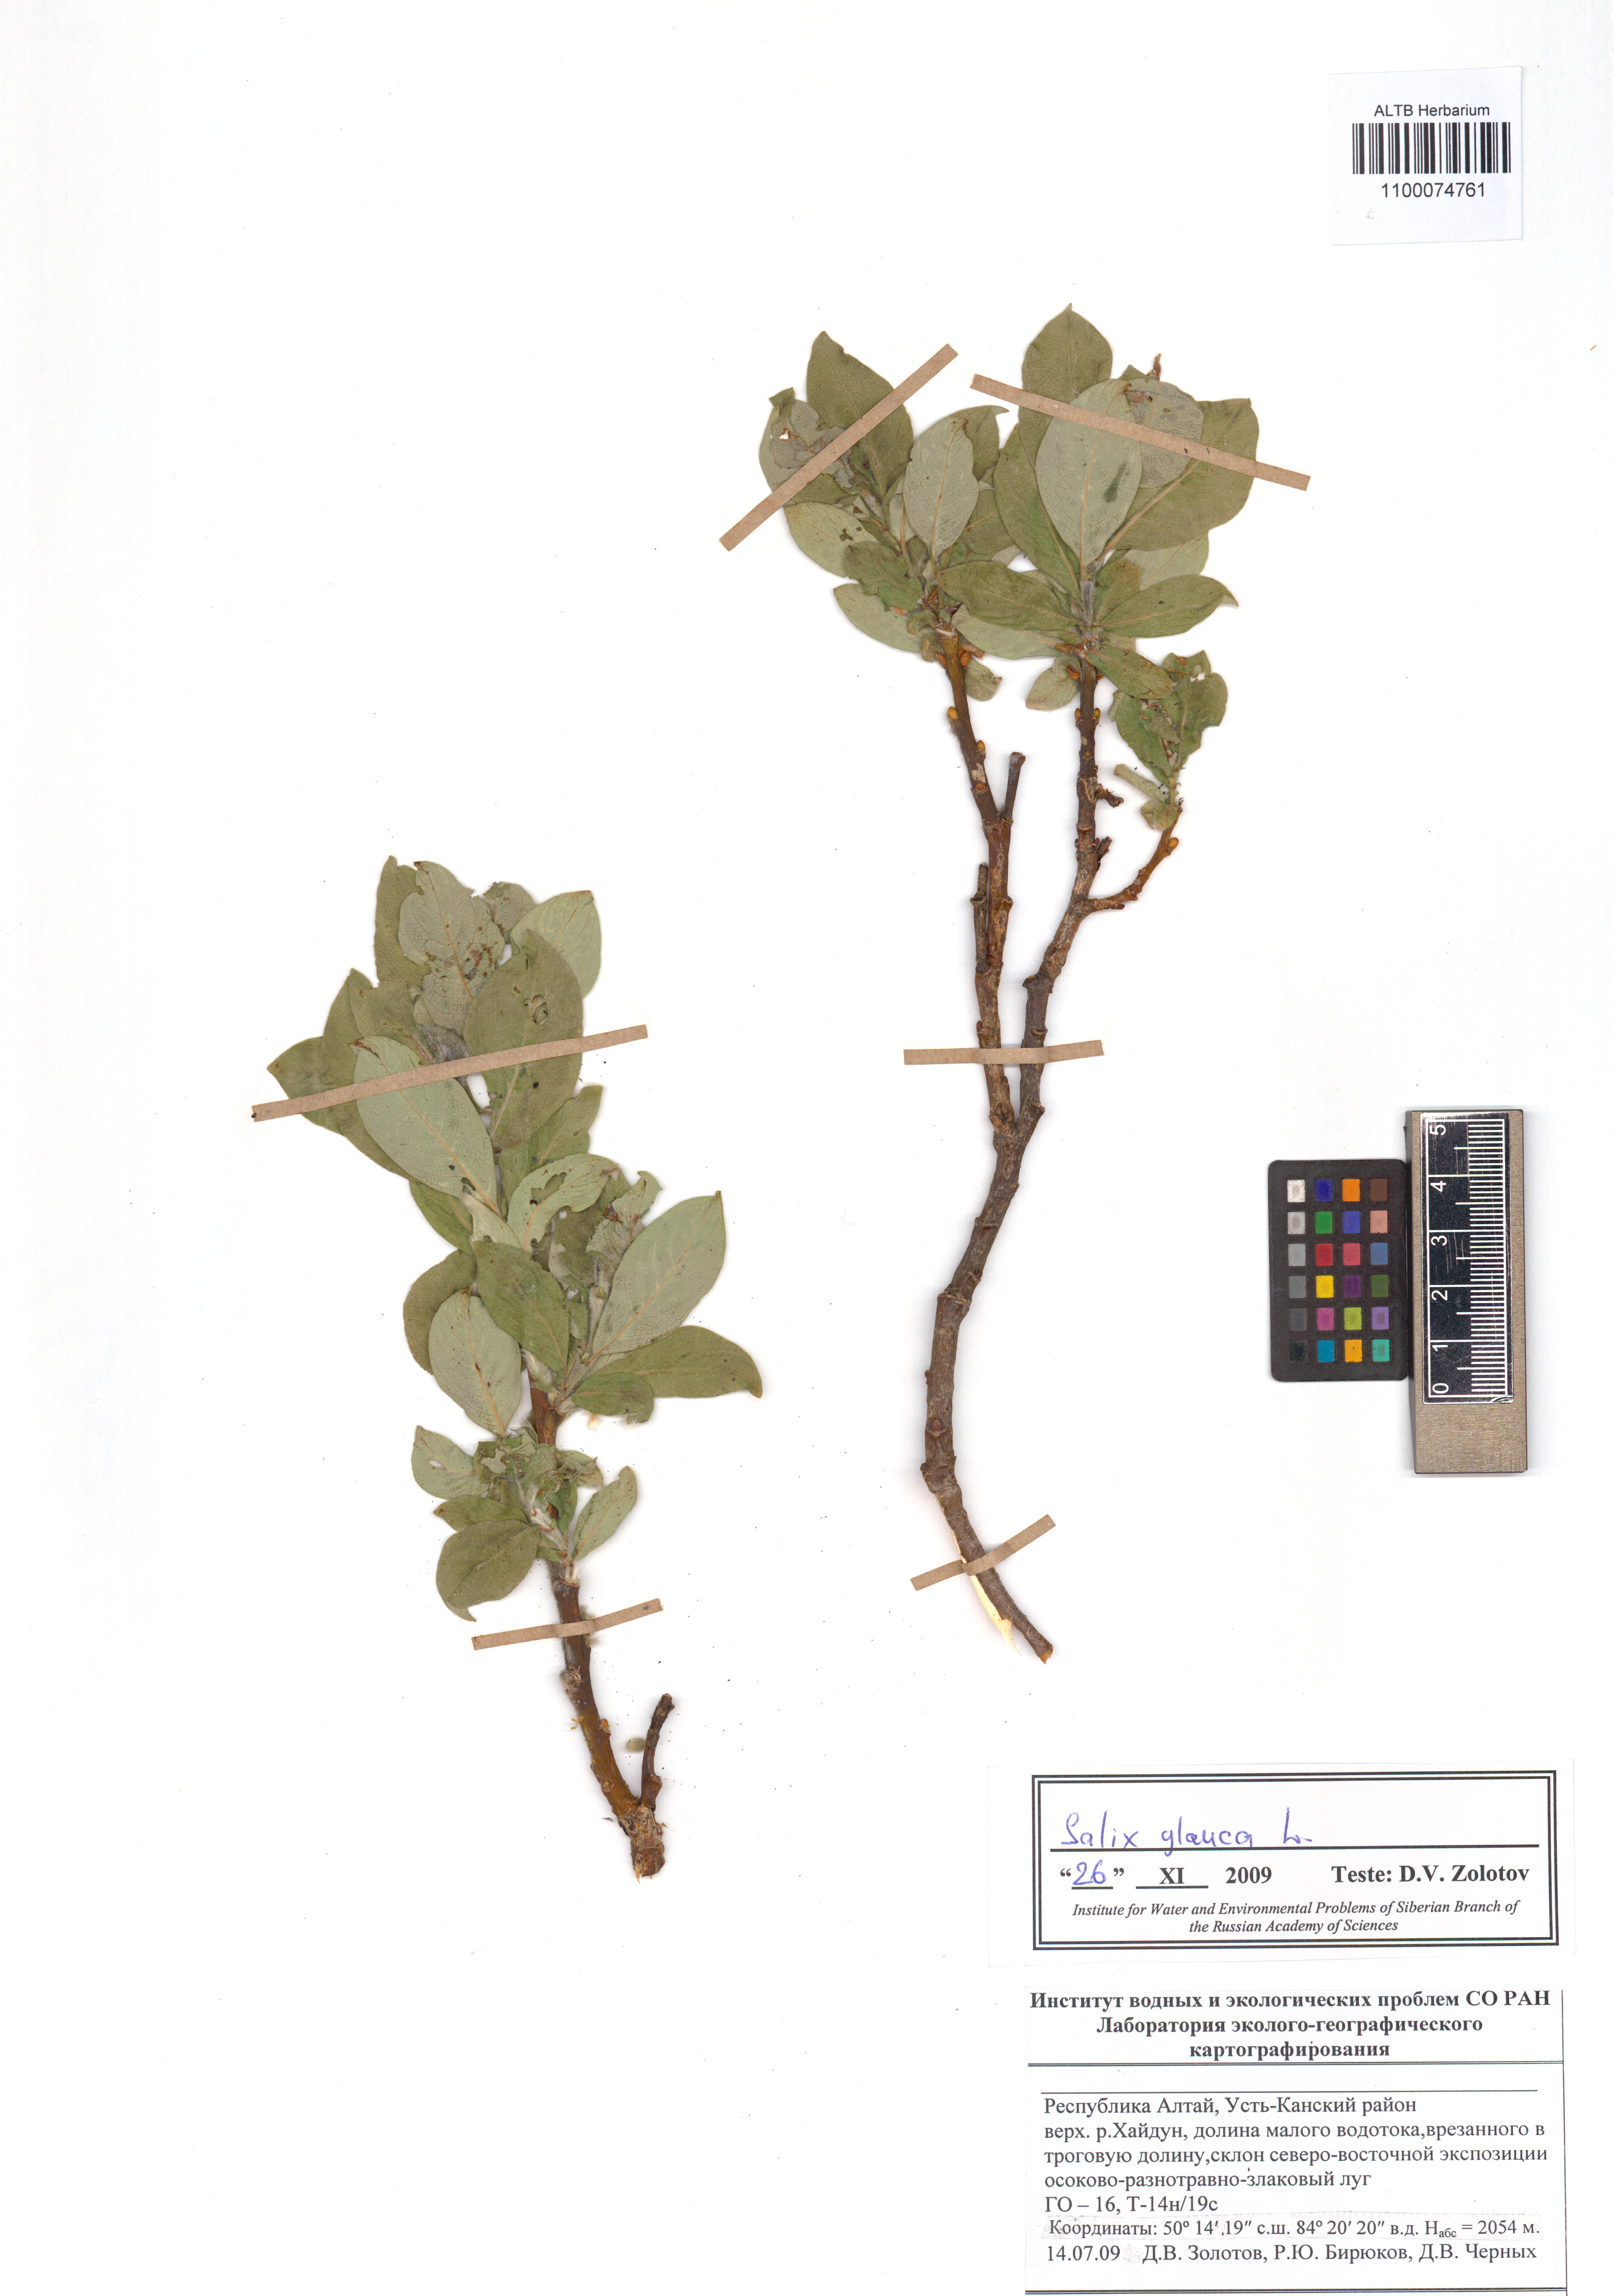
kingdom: Plantae
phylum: Tracheophyta
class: Magnoliopsida
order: Malpighiales
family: Salicaceae
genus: Salix
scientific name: Salix glauca
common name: Glaucous willow
